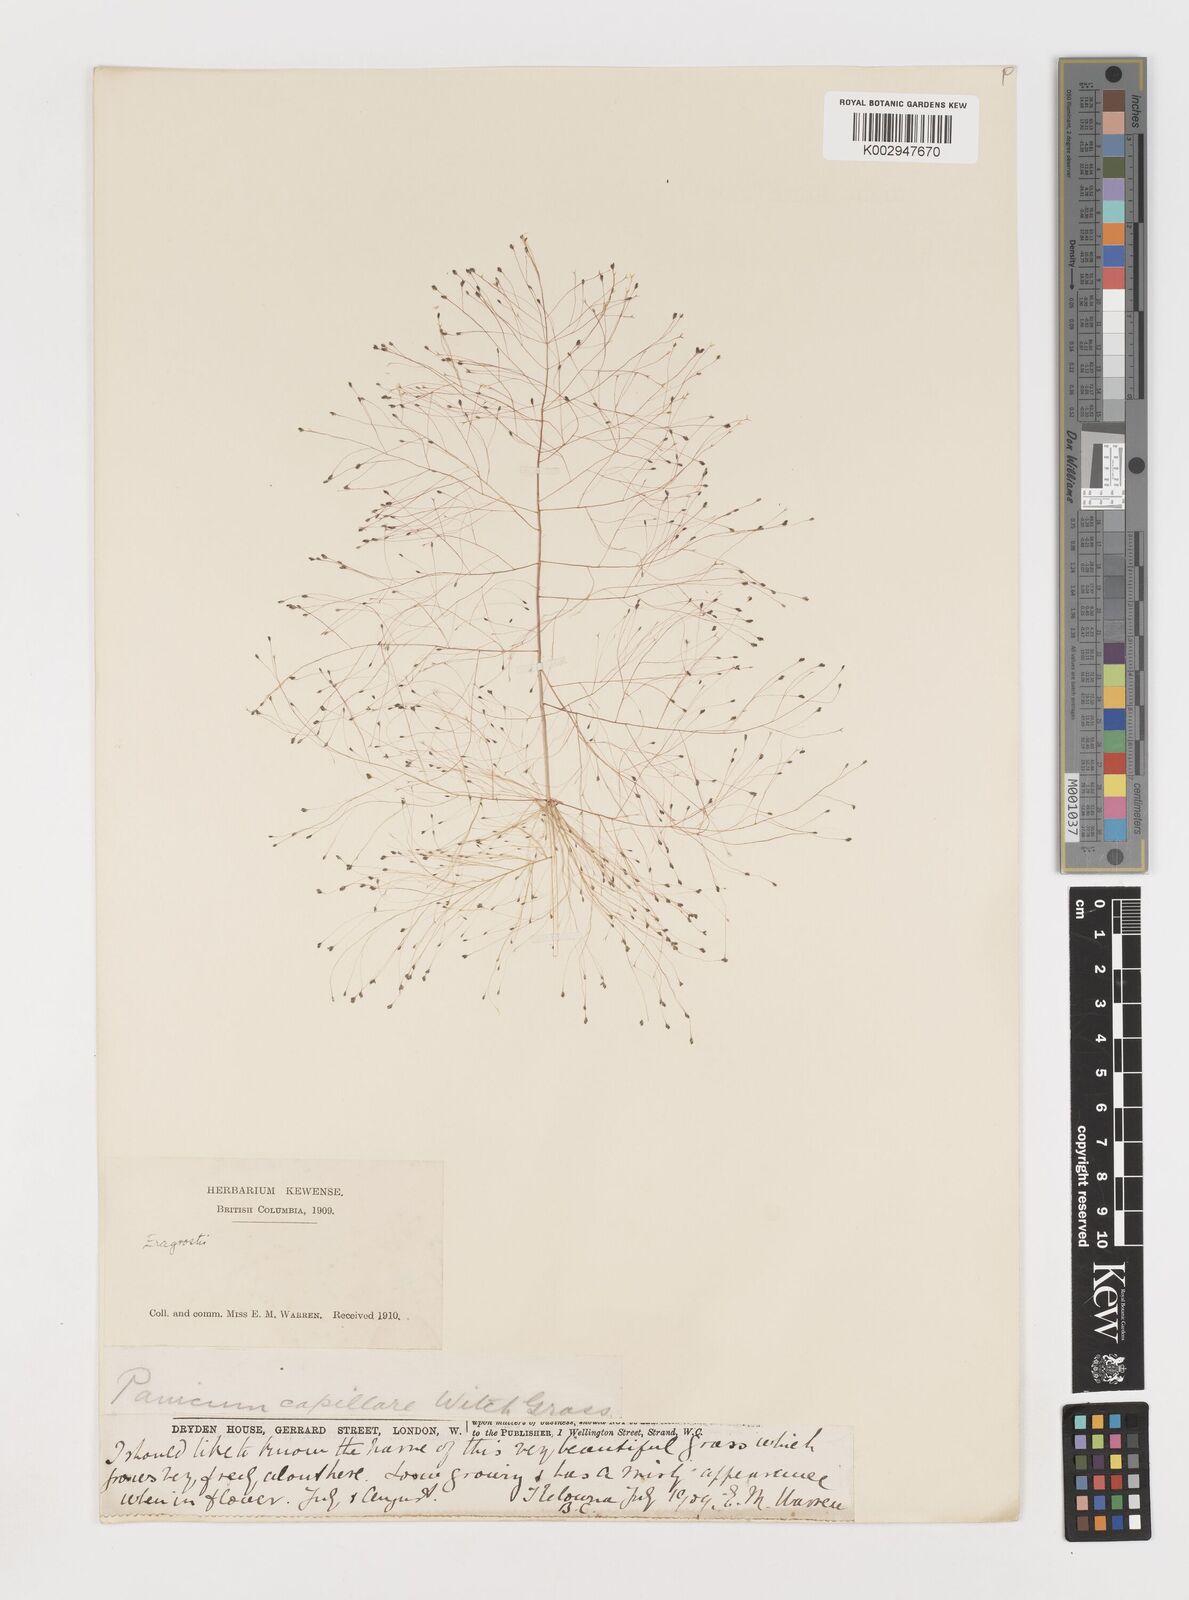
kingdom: Plantae
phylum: Tracheophyta
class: Liliopsida
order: Poales
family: Poaceae
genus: Eragrostis
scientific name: Eragrostis capillaris
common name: Hair-like lovegrass
